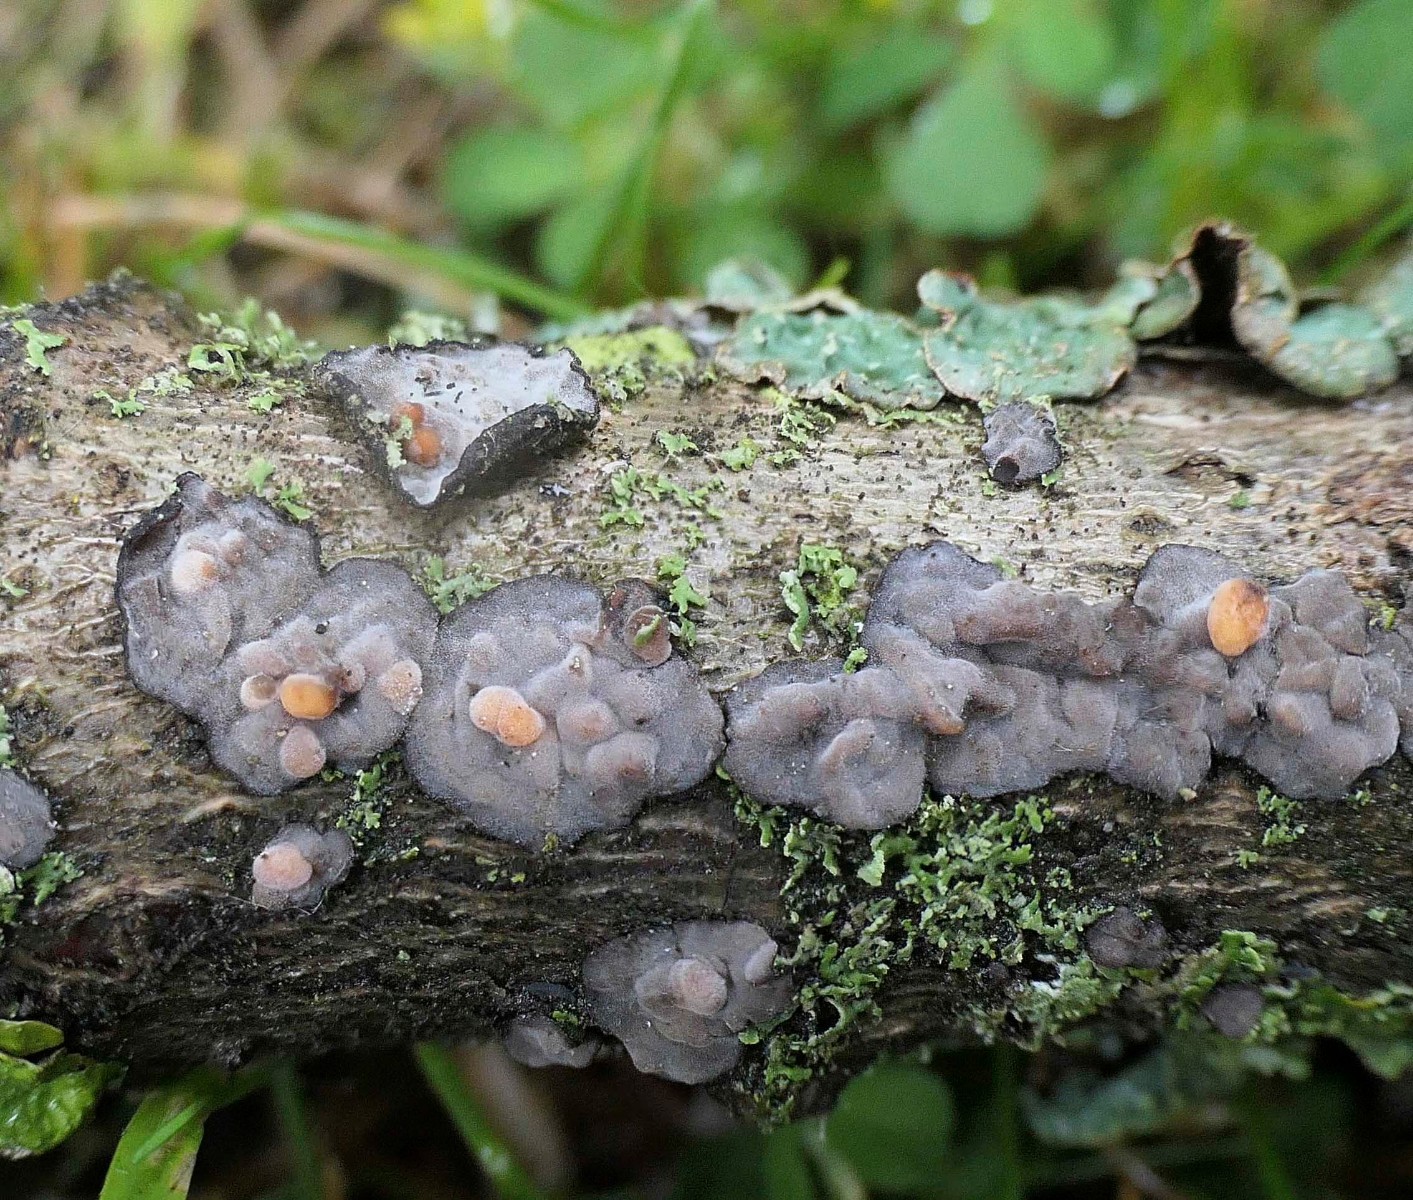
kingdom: Fungi
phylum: Basidiomycota
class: Pucciniomycetes
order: Platygloeales
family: Platygloeaceae
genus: Platygloea
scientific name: Platygloea
